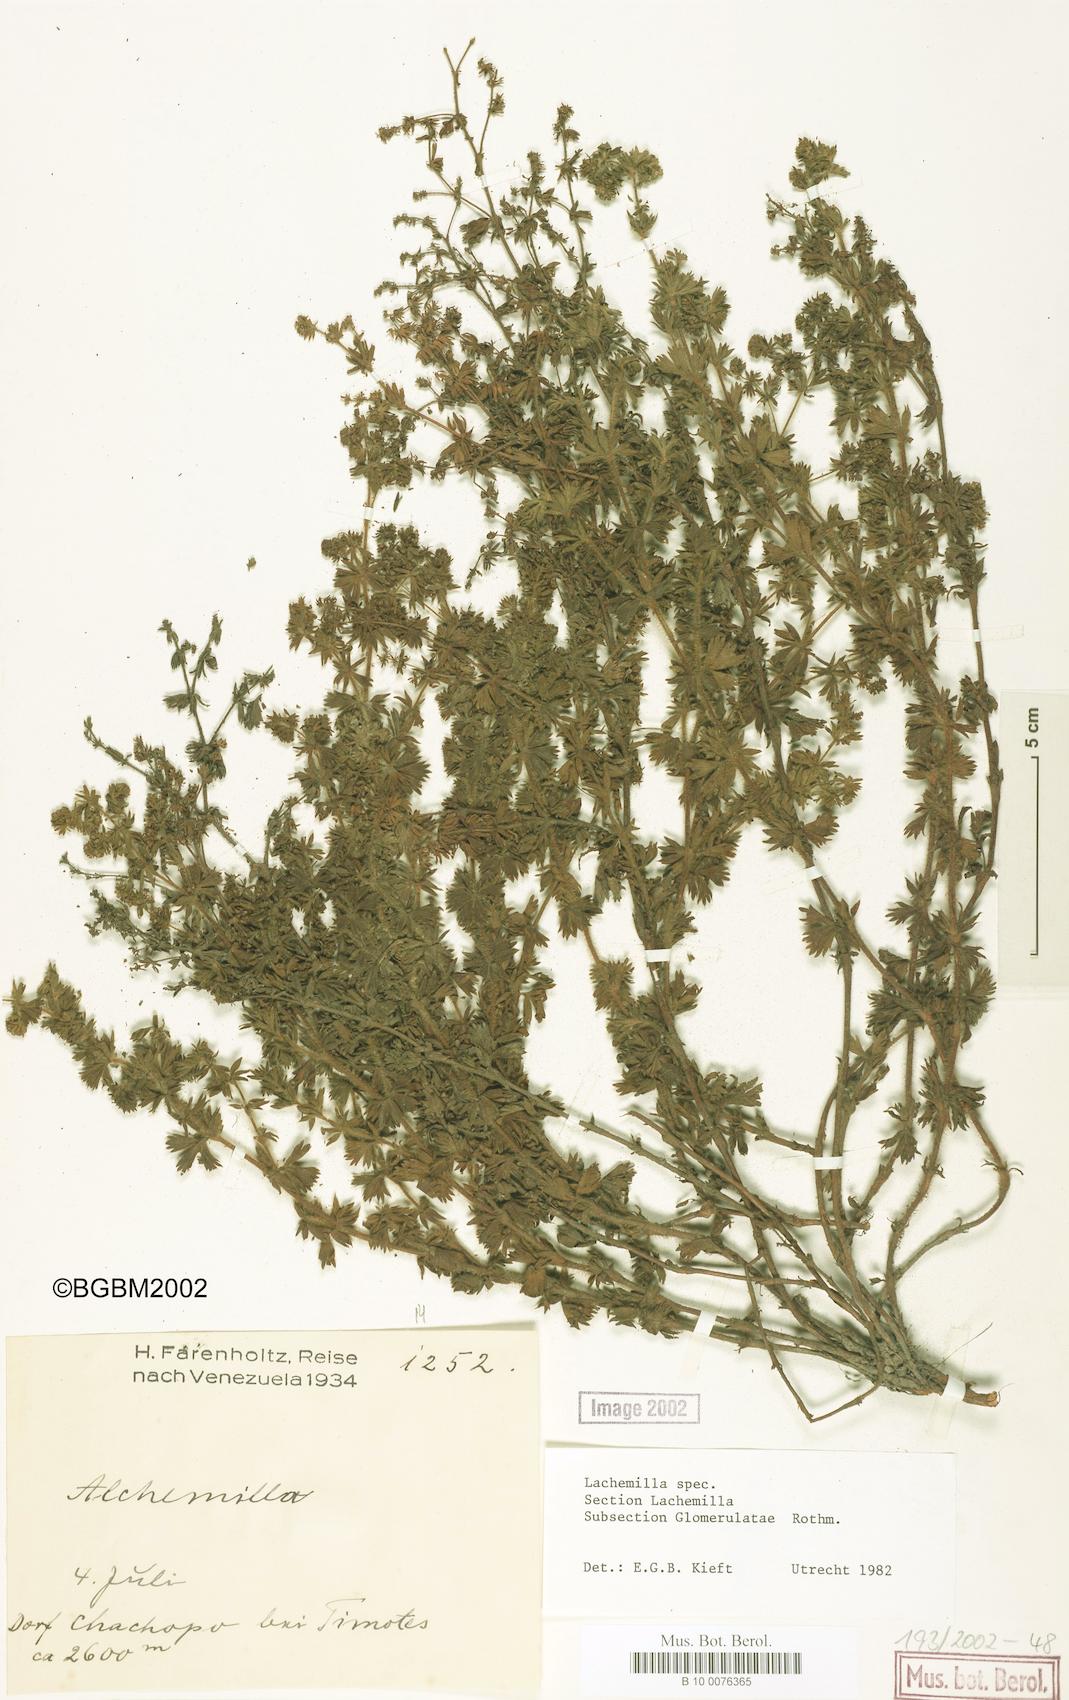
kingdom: Plantae
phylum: Tracheophyta
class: Magnoliopsida
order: Rosales
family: Rosaceae
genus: Lachemilla
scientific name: Lachemilla
